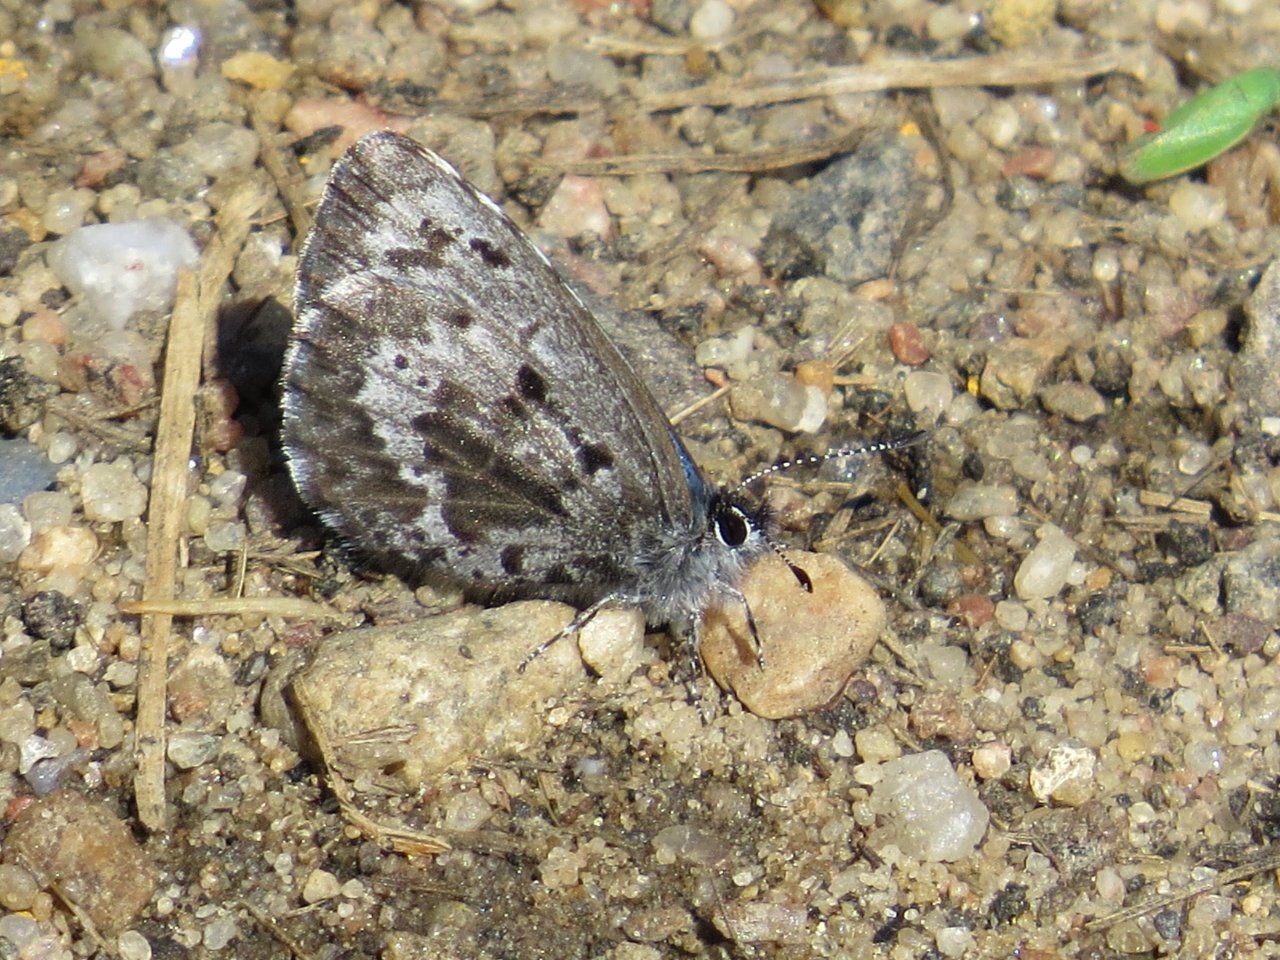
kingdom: Animalia
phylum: Arthropoda
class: Insecta
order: Lepidoptera
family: Lycaenidae
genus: Celastrina
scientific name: Celastrina lucia
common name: Northern Spring Azure
